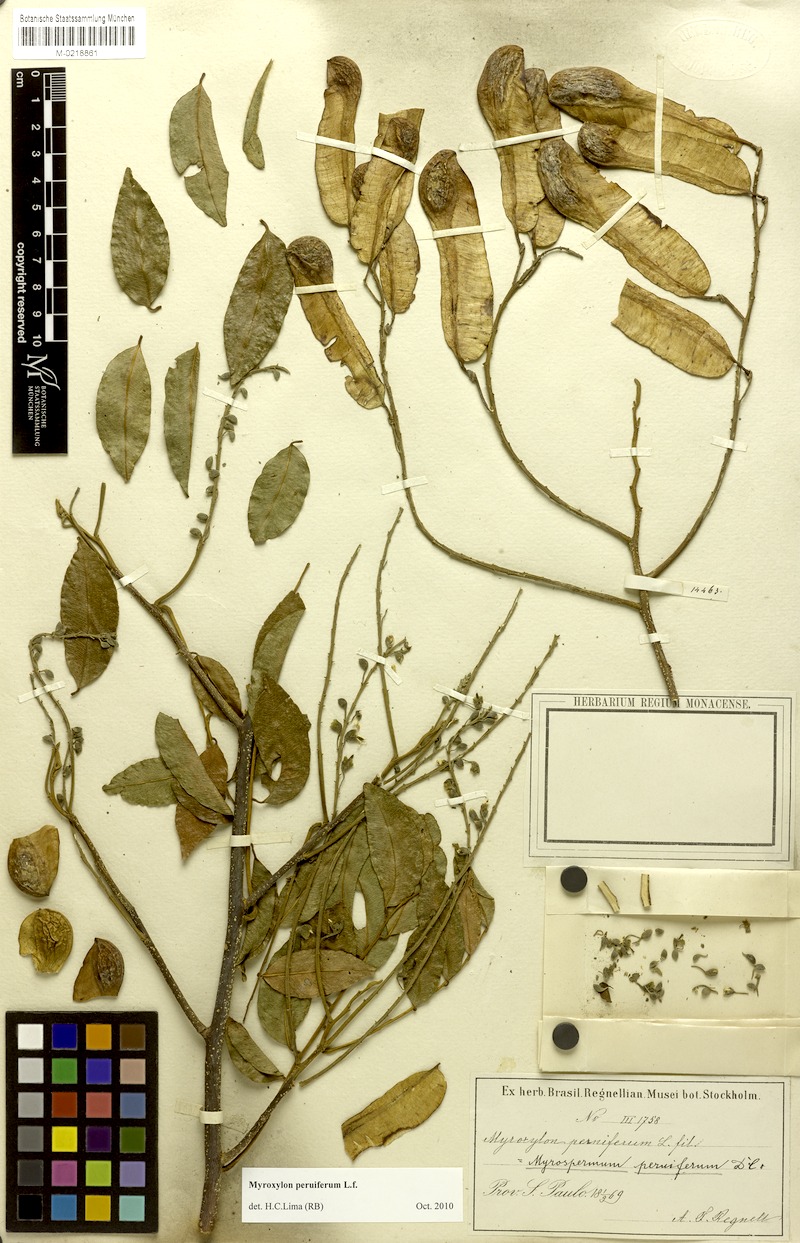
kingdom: Plantae
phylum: Tracheophyta
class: Magnoliopsida
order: Fabales
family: Fabaceae
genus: Myroxylon
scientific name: Myroxylon peruiferum
